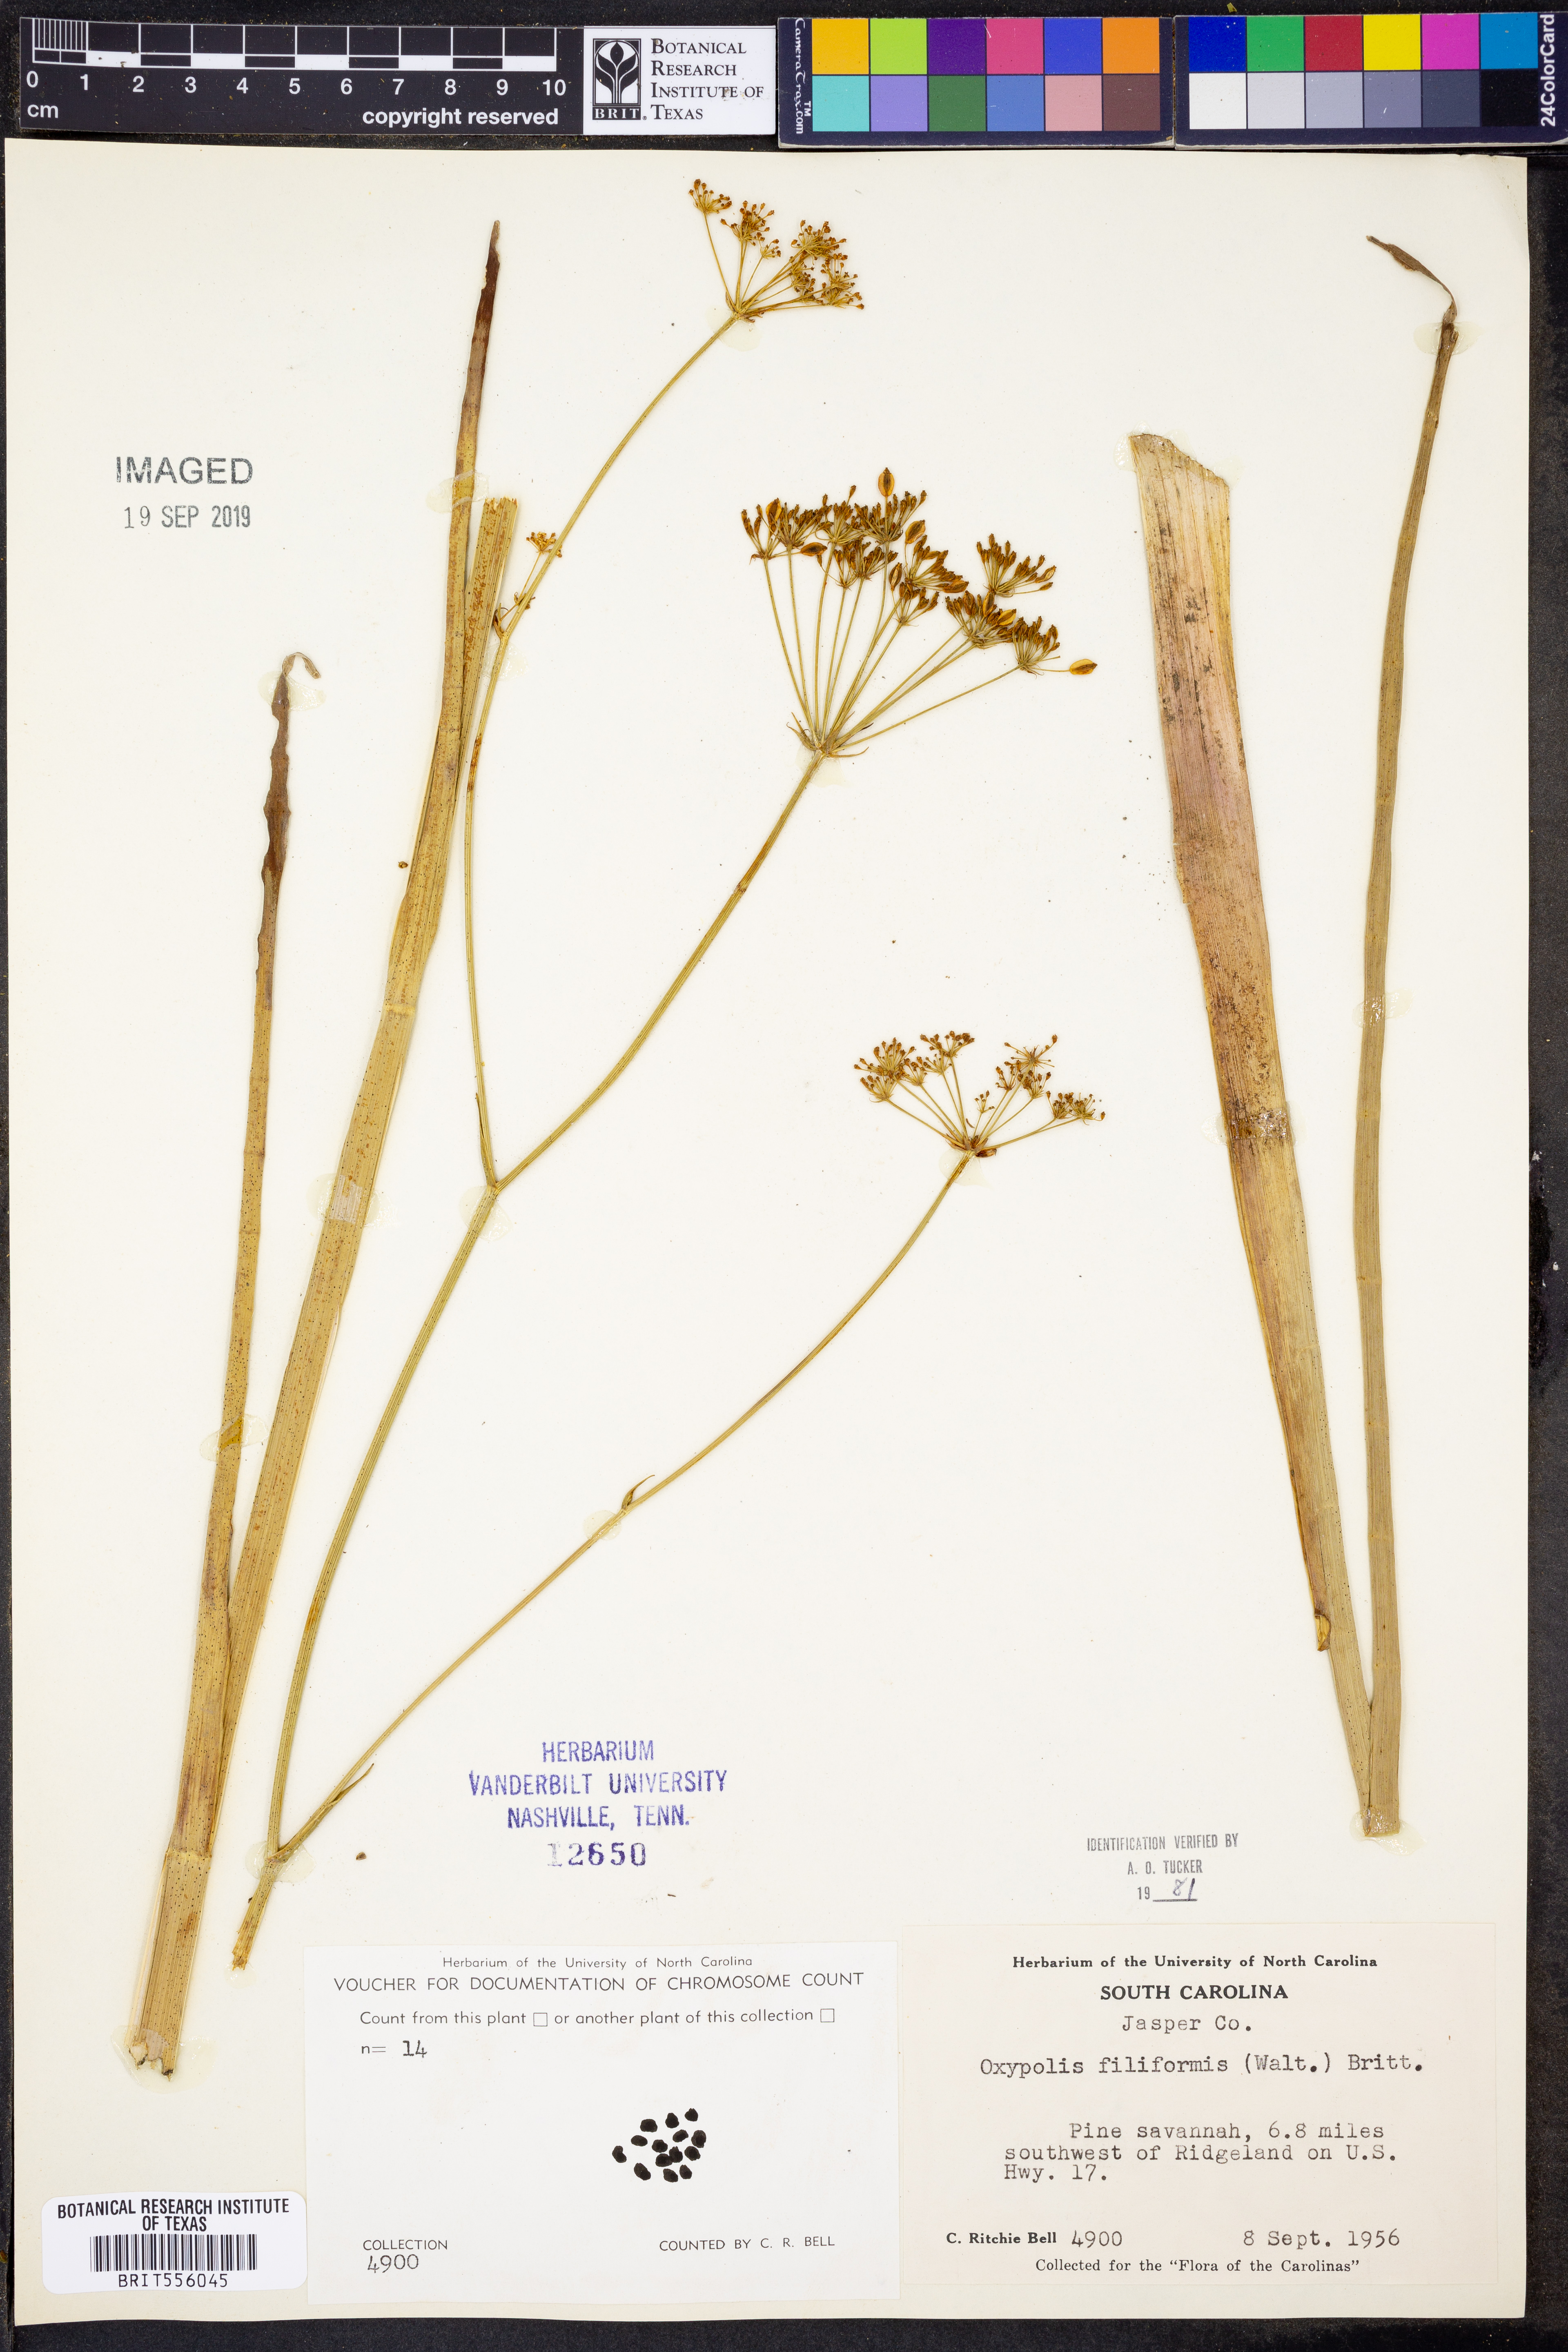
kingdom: Plantae
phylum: Tracheophyta
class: Magnoliopsida
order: Apiales
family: Apiaceae
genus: Tiedemannia
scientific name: Tiedemannia filiformis
